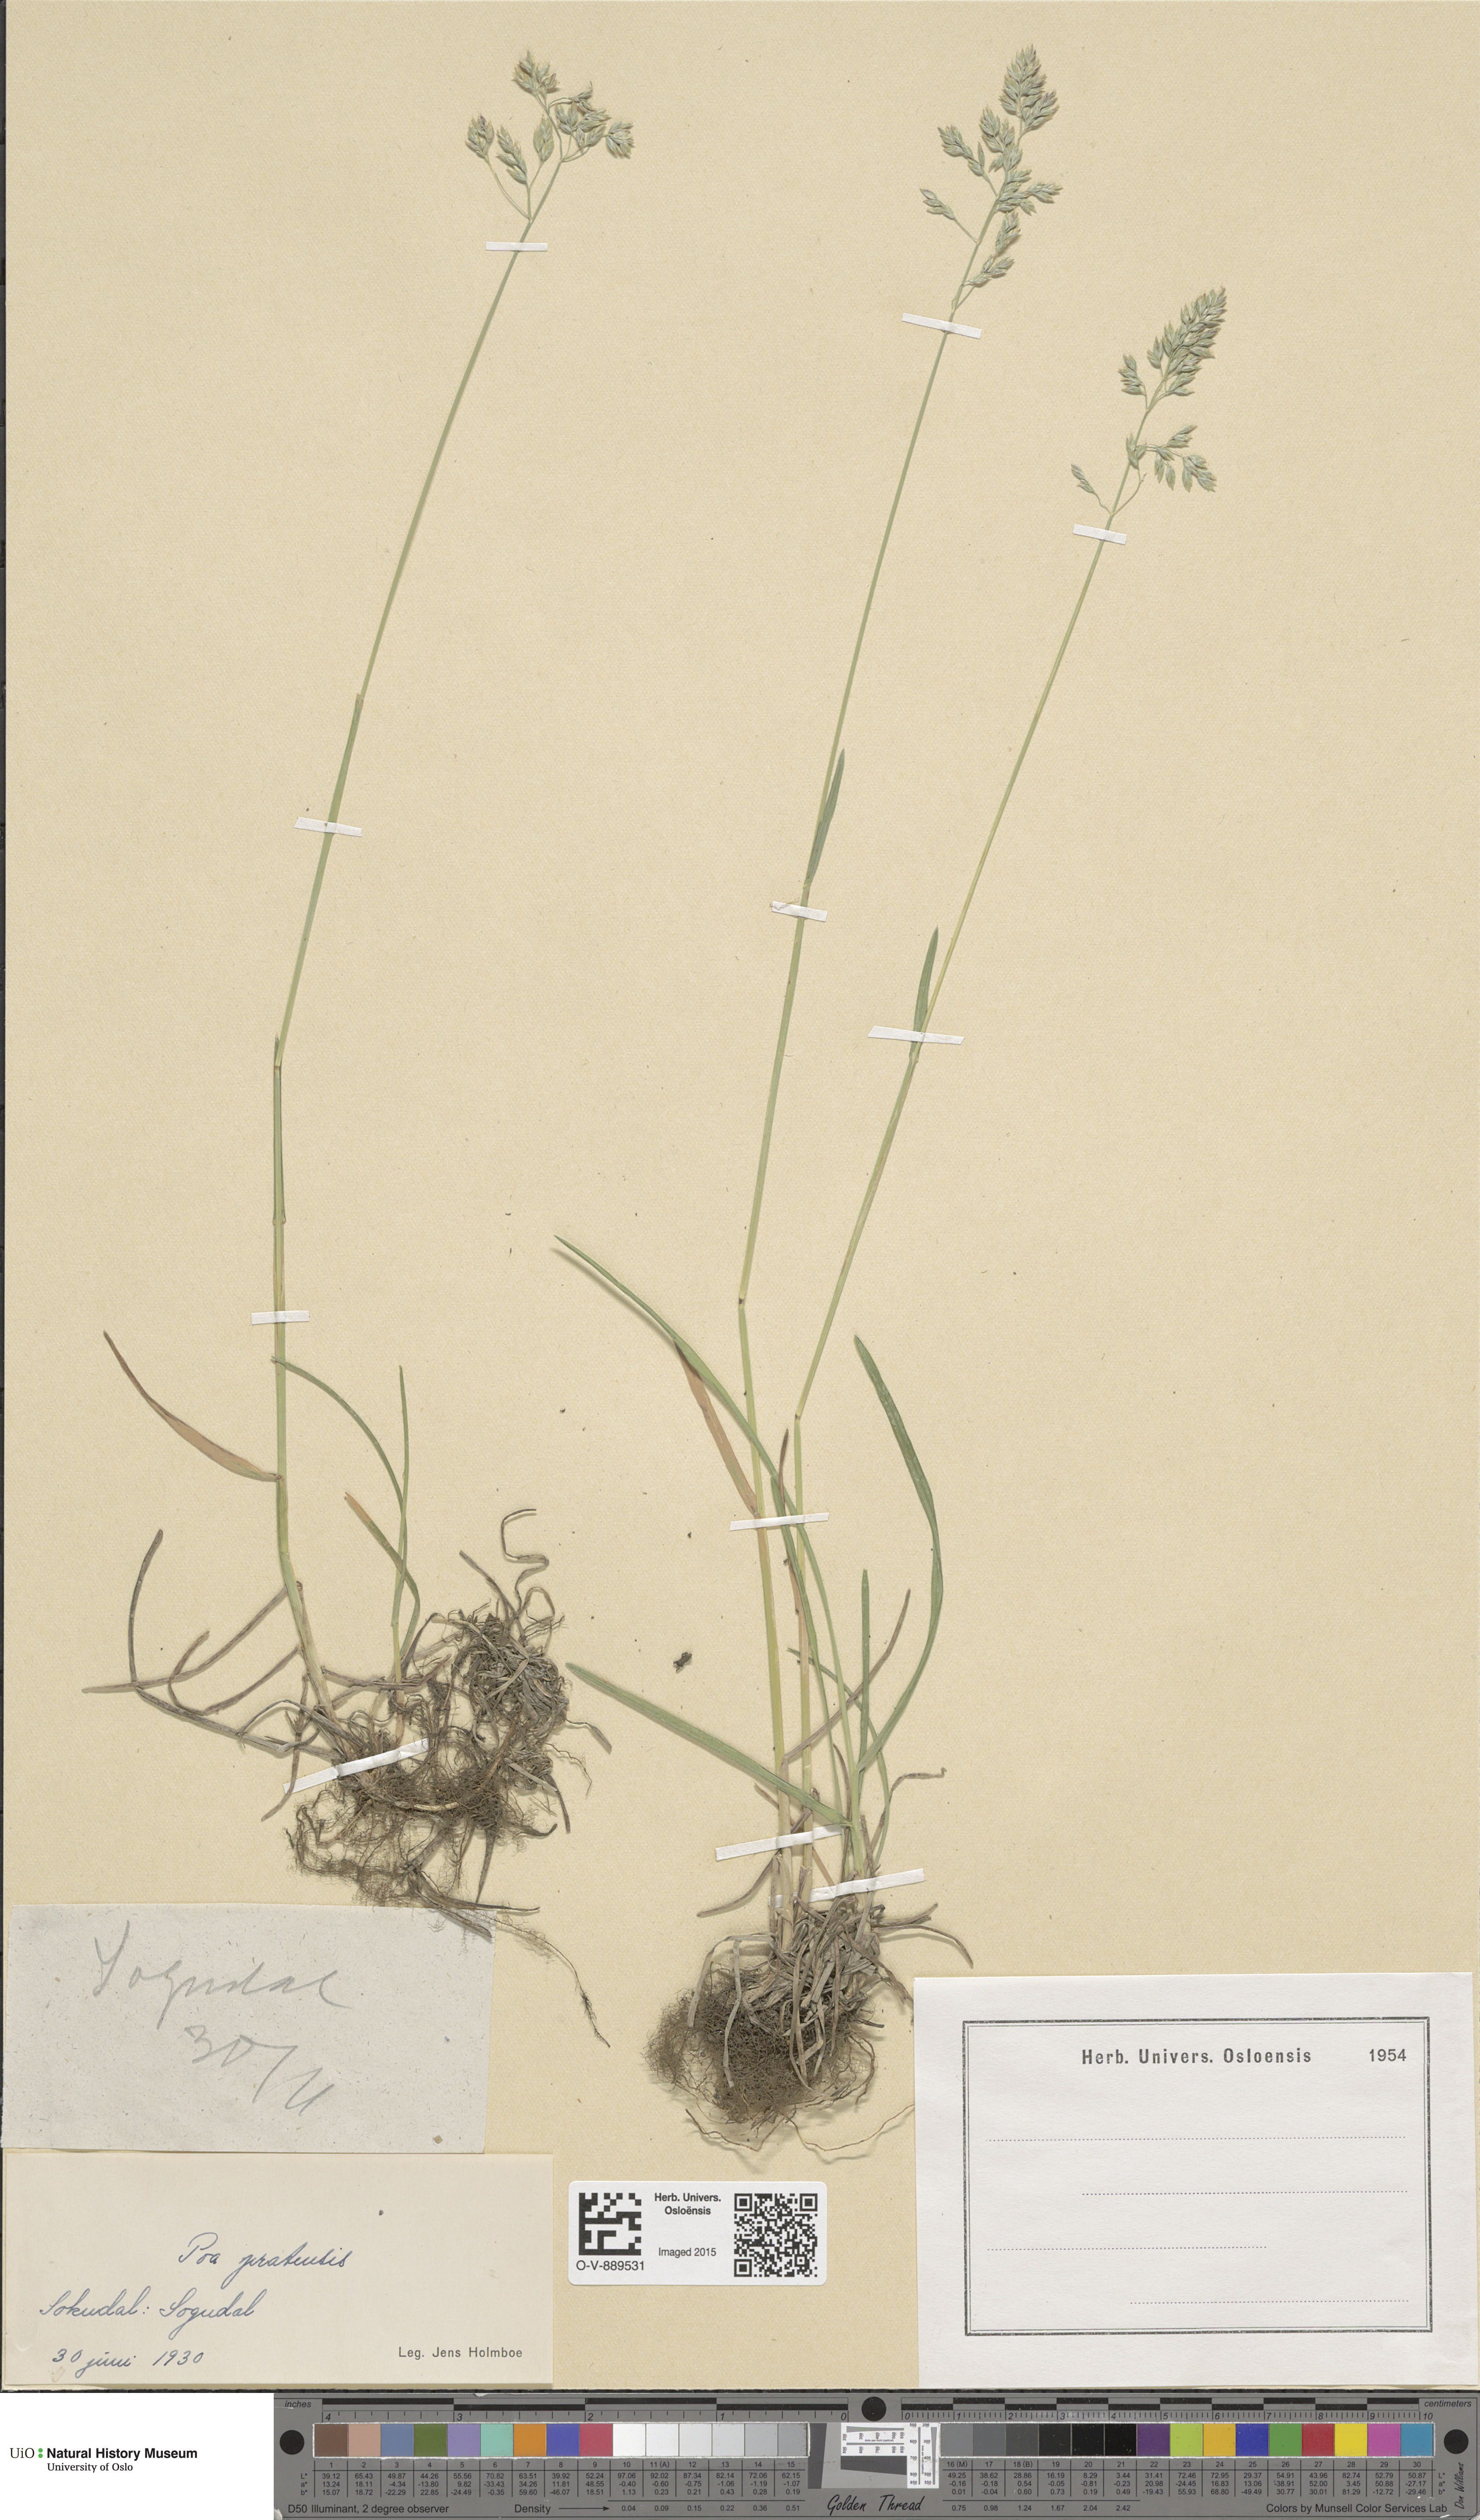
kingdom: Plantae
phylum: Tracheophyta
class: Liliopsida
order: Poales
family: Poaceae
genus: Poa
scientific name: Poa pratensis
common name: Kentucky bluegrass
